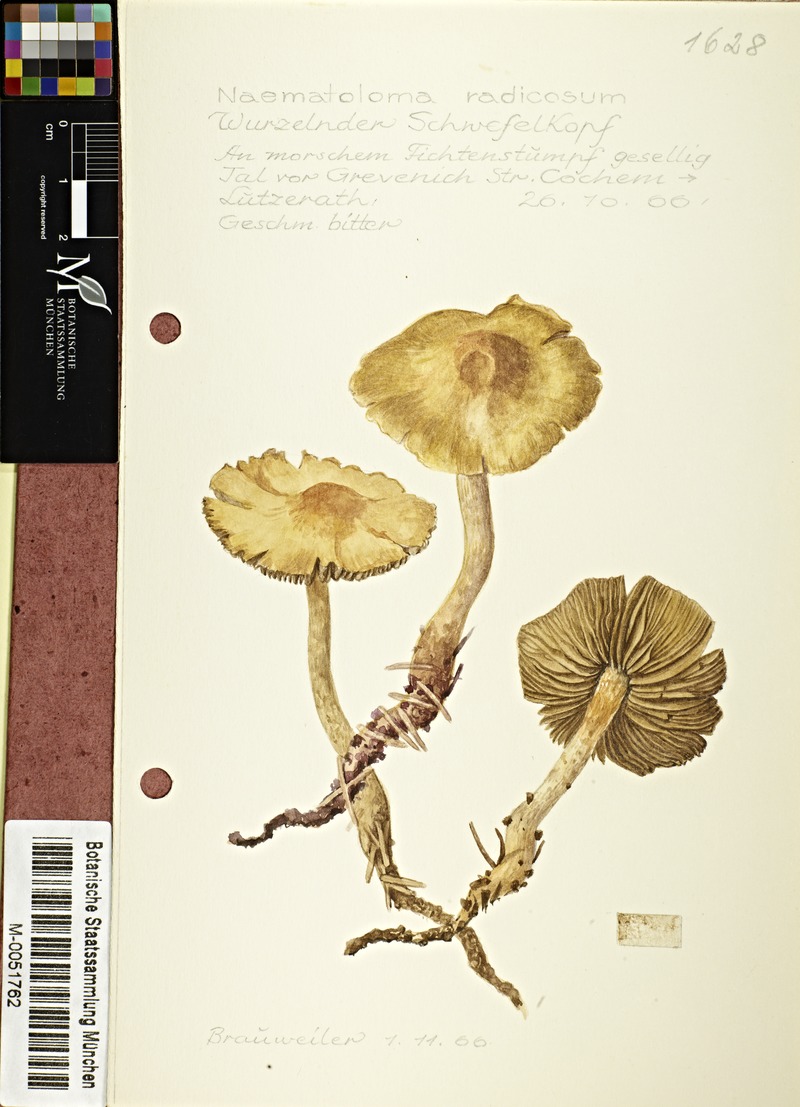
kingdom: Fungi
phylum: Basidiomycota
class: Agaricomycetes
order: Agaricales
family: Strophariaceae
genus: Hypholoma
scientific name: Hypholoma radicosum
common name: Rooting brownie
